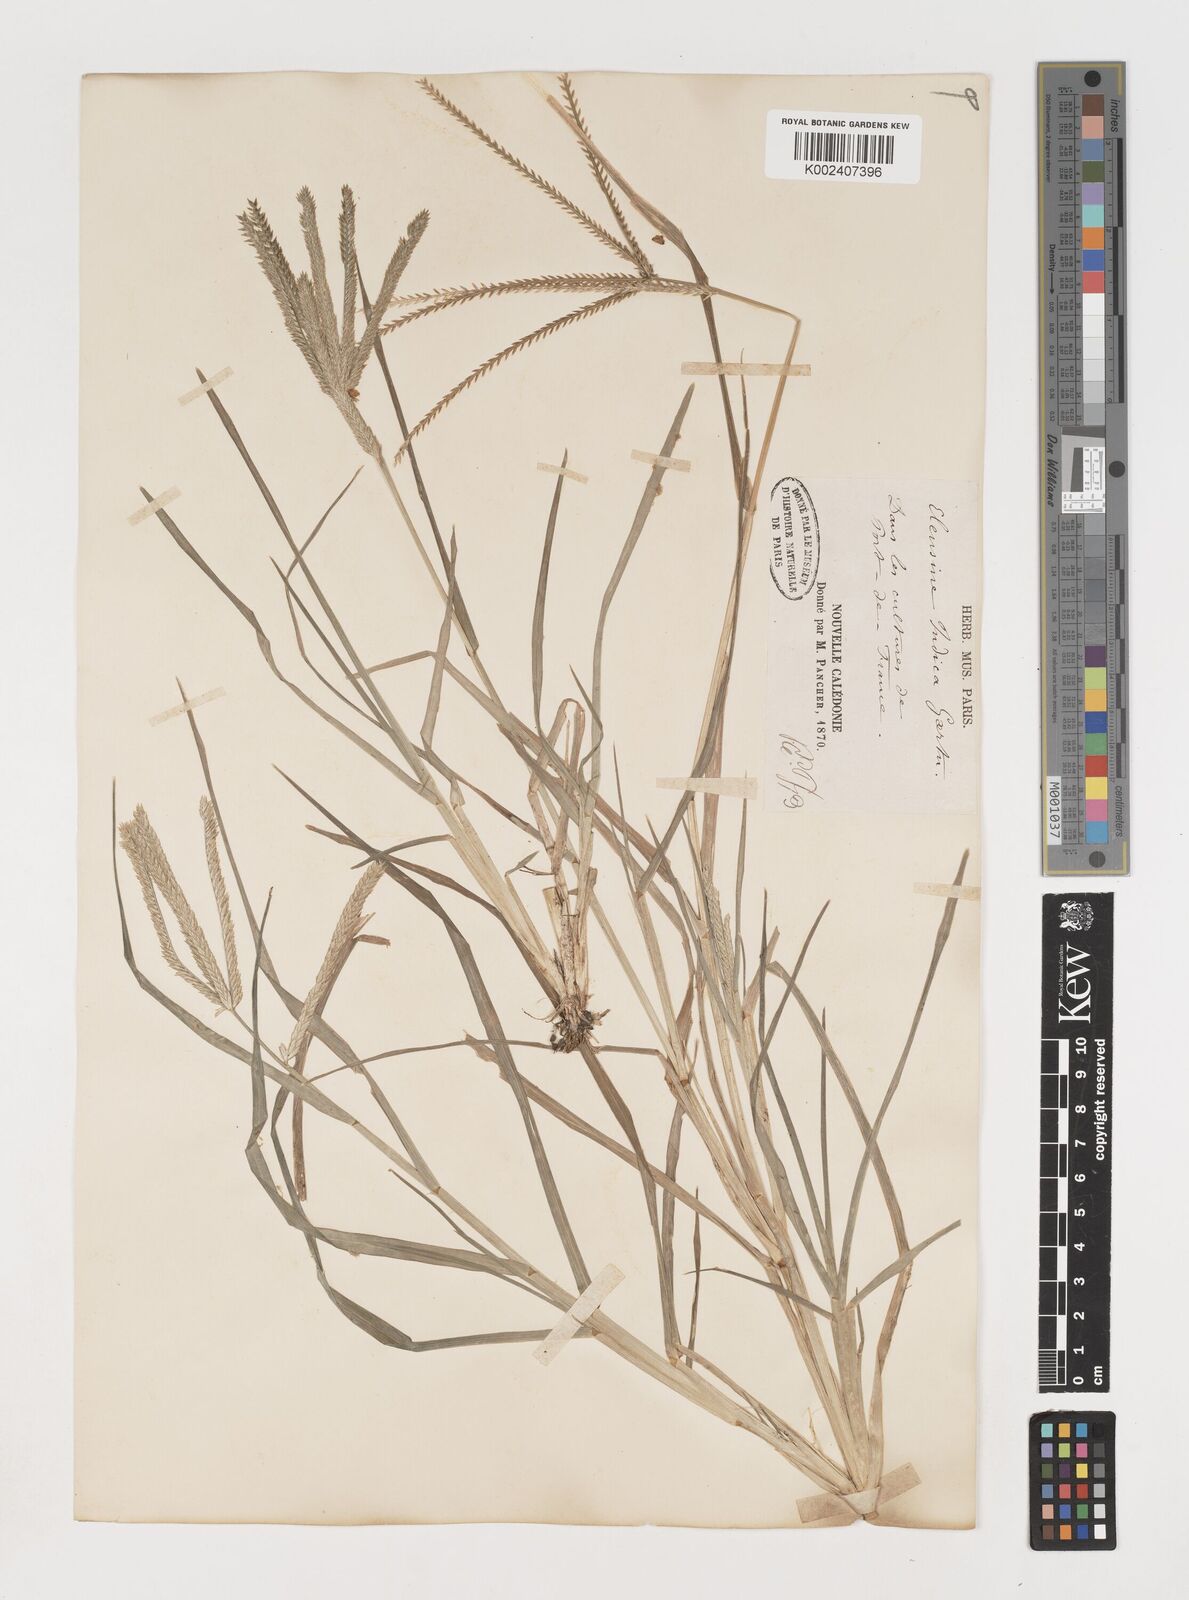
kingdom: Plantae
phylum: Tracheophyta
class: Liliopsida
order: Poales
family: Poaceae
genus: Eleusine
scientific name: Eleusine indica
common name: Yard-grass
